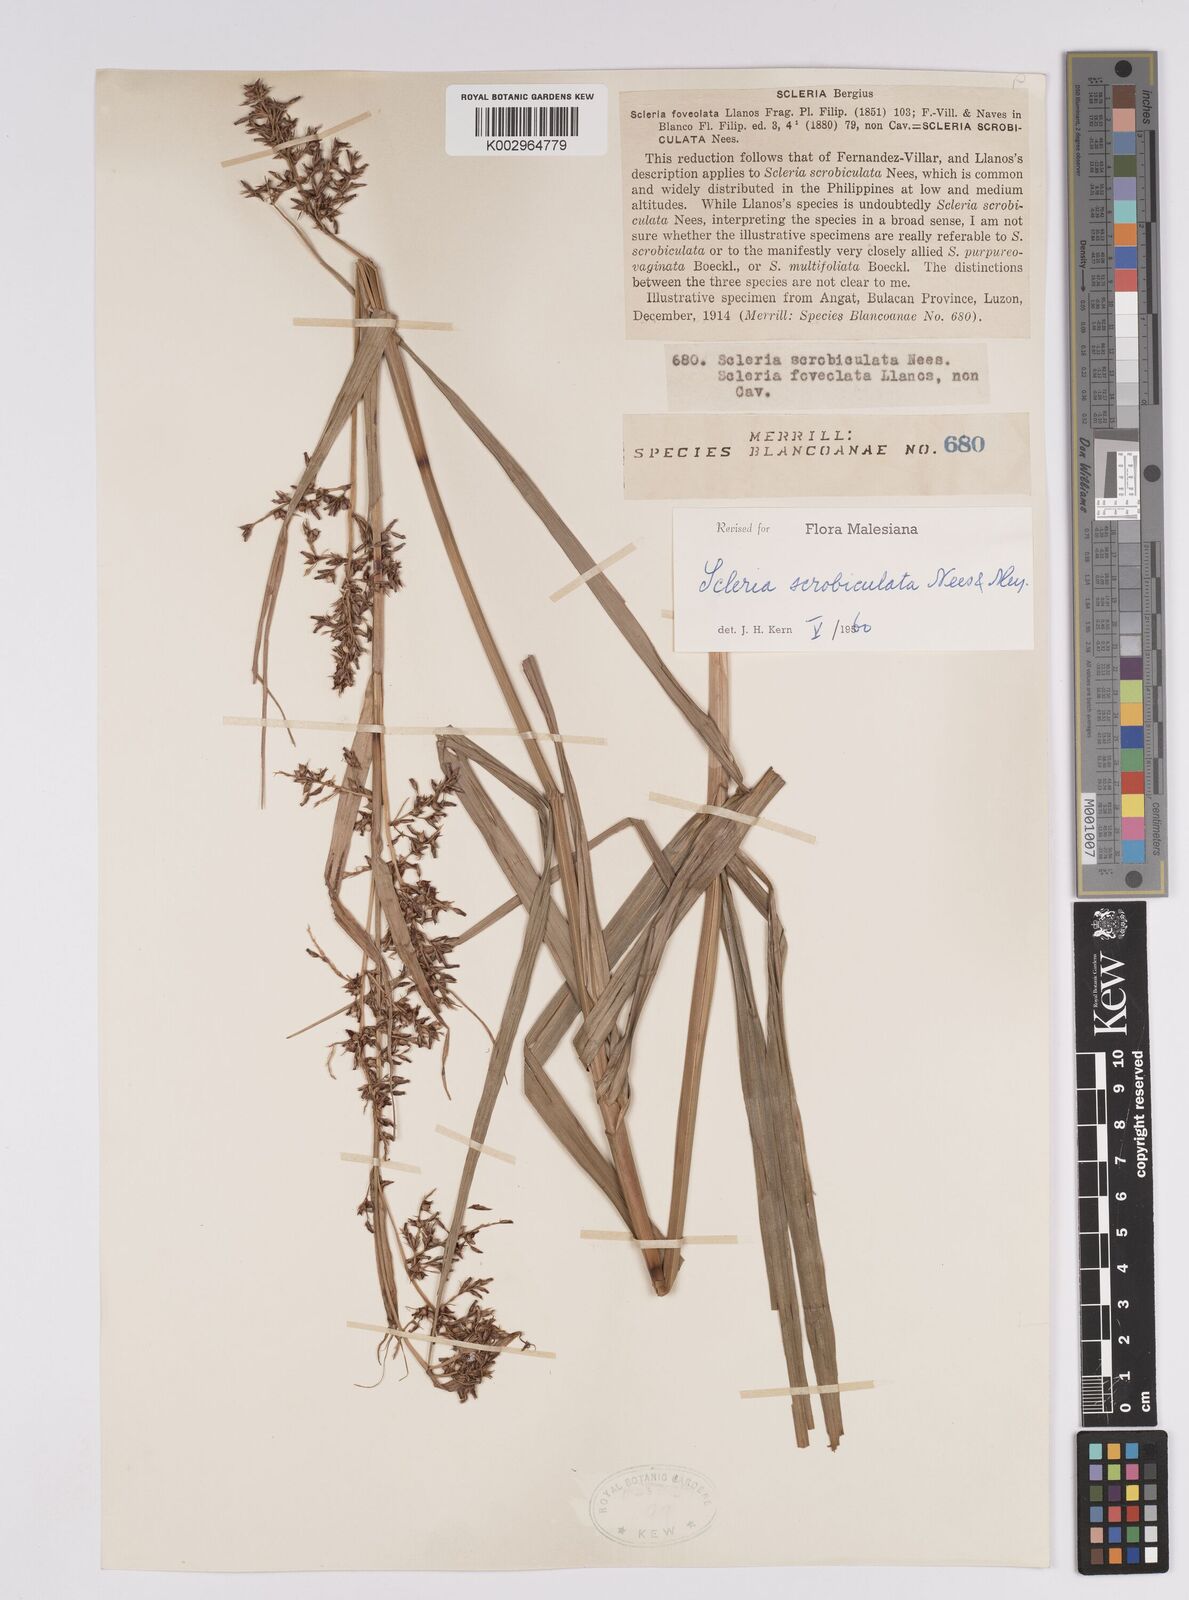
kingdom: Plantae
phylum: Tracheophyta
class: Liliopsida
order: Poales
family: Cyperaceae
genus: Scleria
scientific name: Scleria scrobiculata
